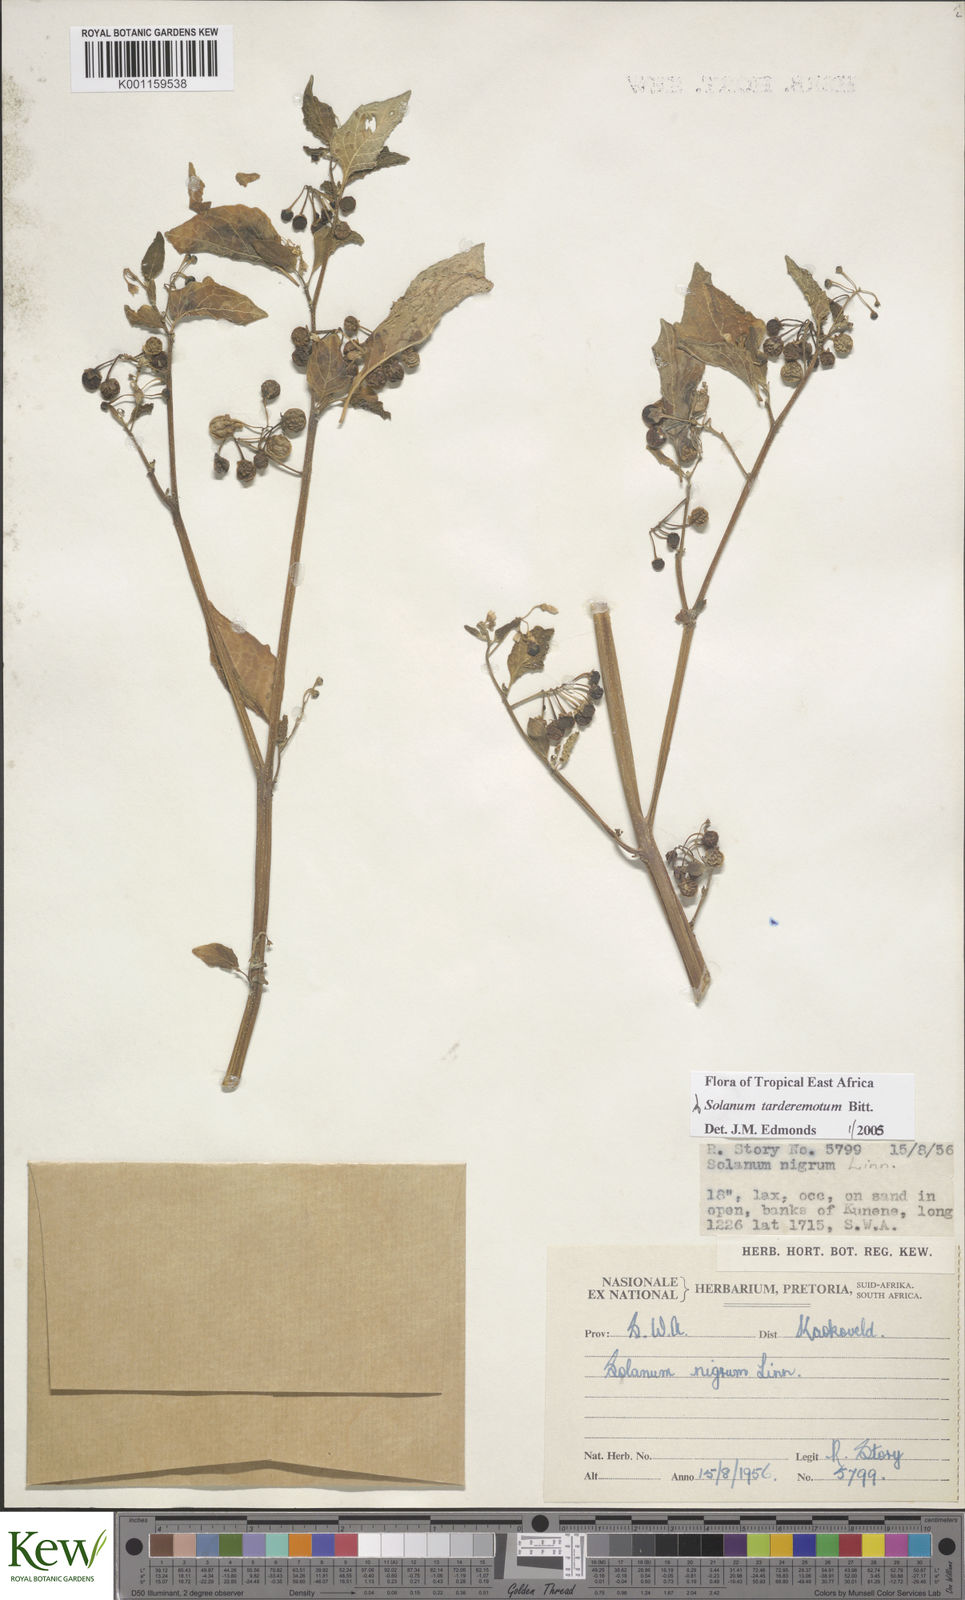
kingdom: Plantae
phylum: Tracheophyta
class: Magnoliopsida
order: Solanales
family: Solanaceae
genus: Solanum
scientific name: Solanum tarderemotum
